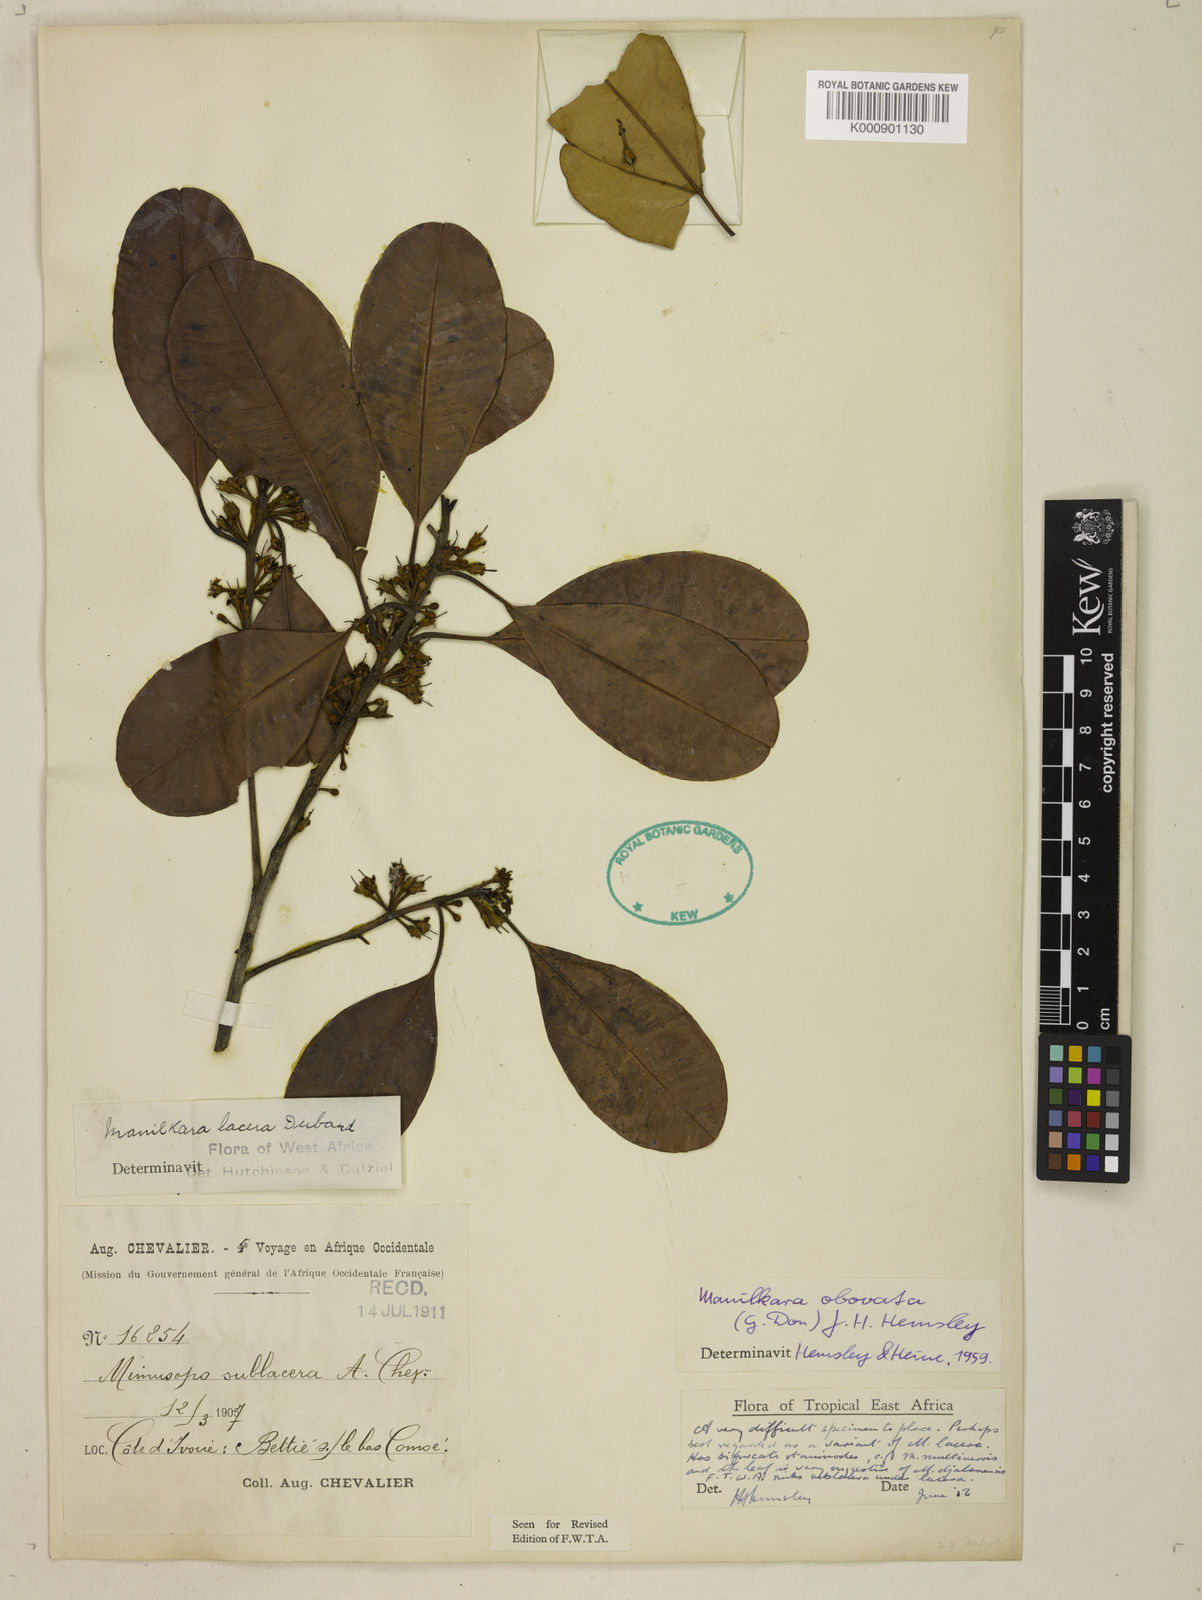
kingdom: Plantae
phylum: Tracheophyta
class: Magnoliopsida
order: Ericales
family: Sapotaceae
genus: Manilkara
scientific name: Manilkara obovata
